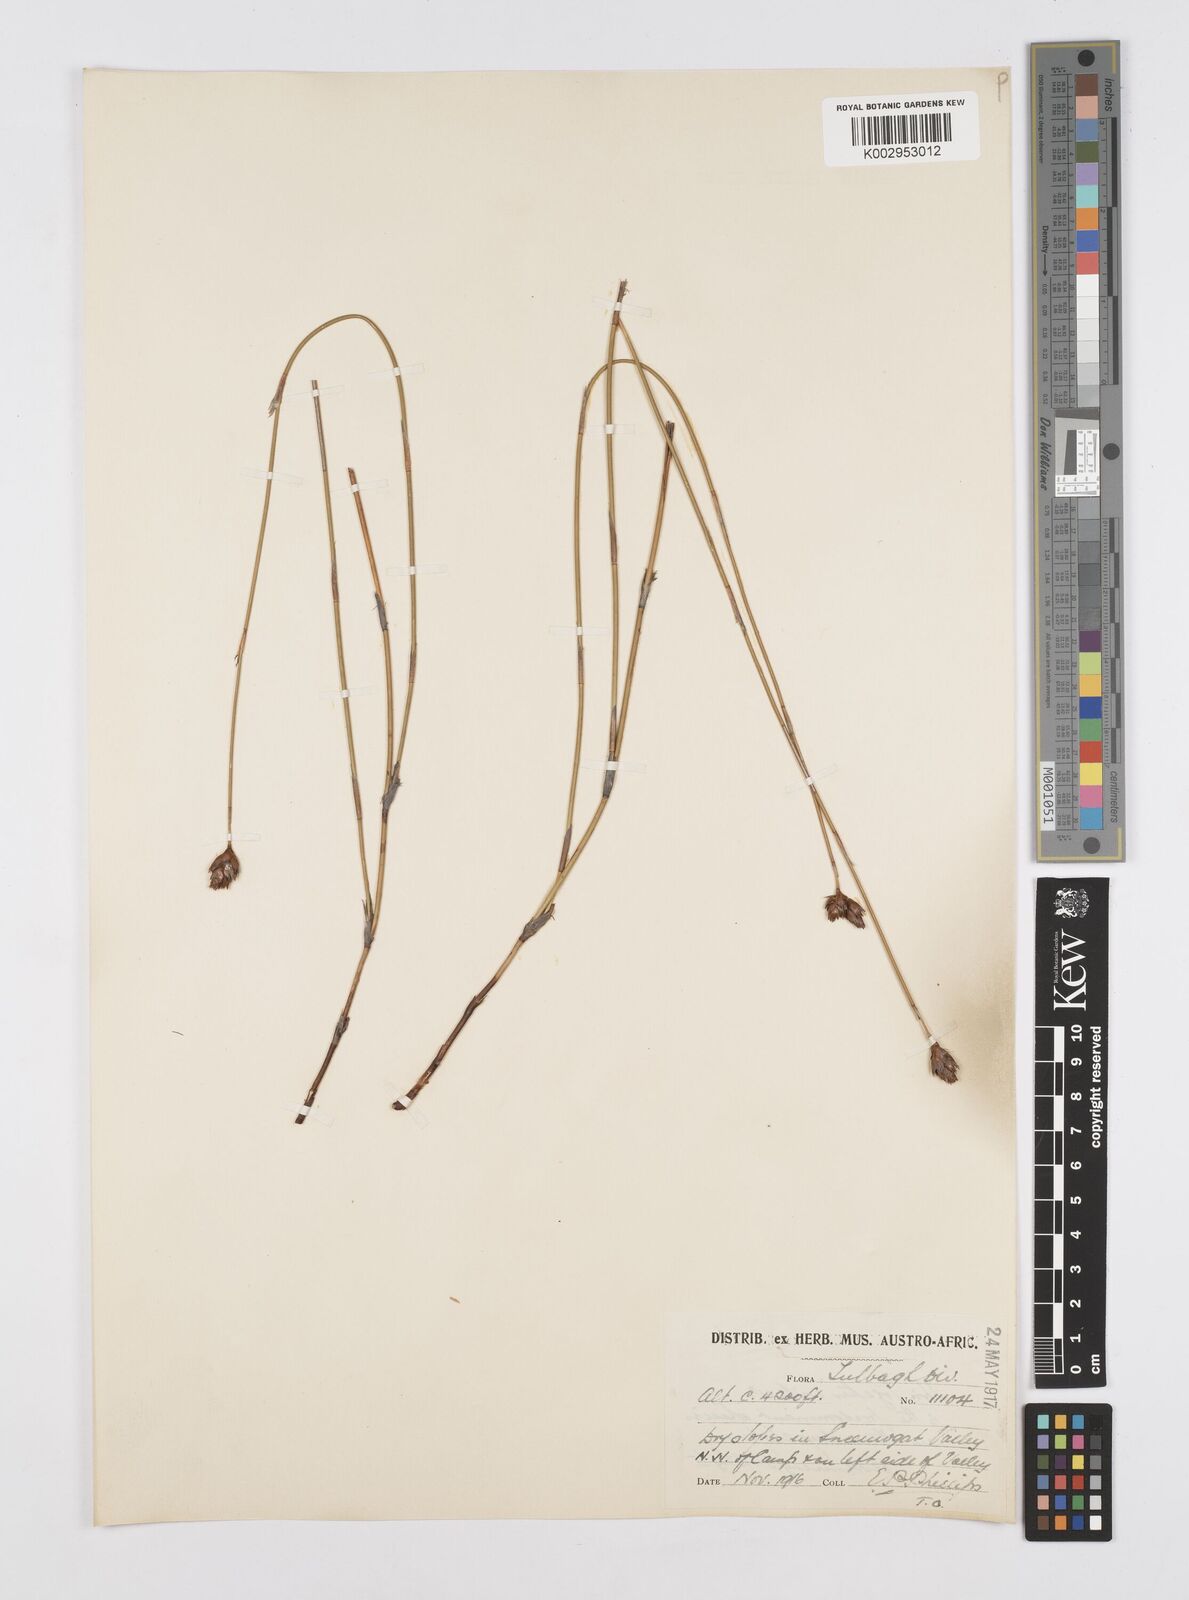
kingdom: Plantae
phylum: Tracheophyta
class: Liliopsida
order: Poales
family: Restionaceae
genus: Restio
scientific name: Restio sieberi
